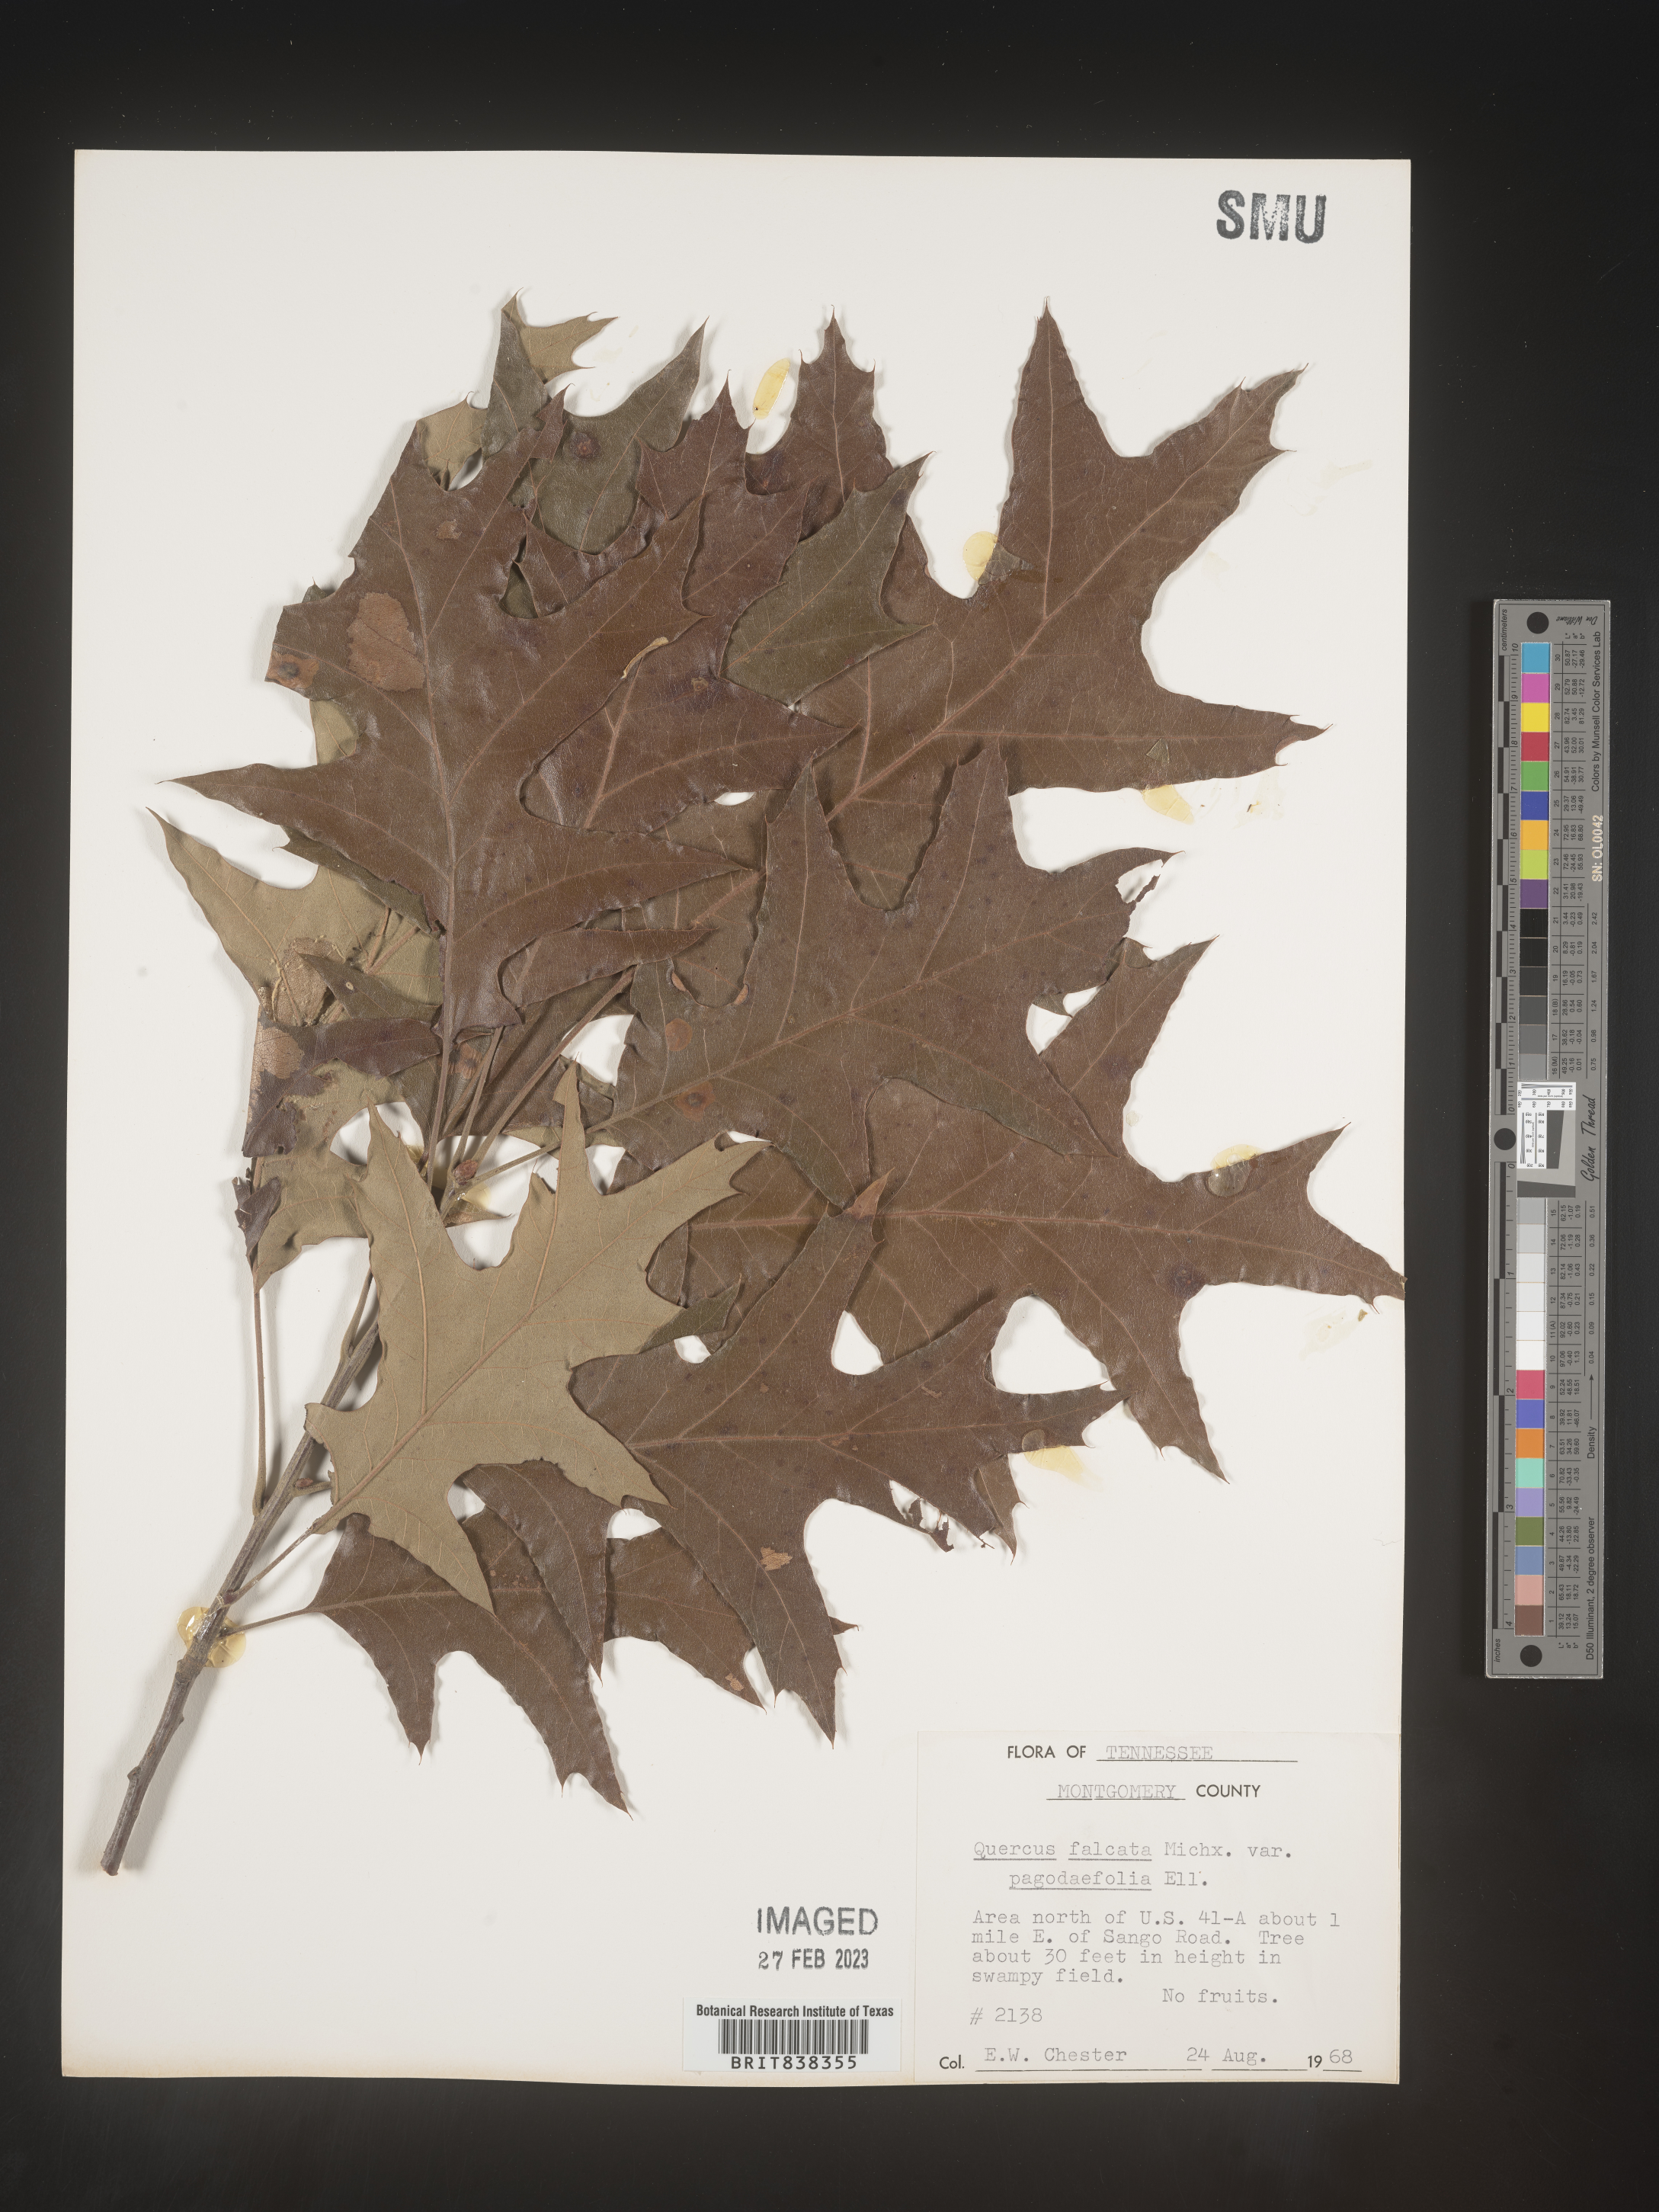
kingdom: Plantae
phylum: Tracheophyta
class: Magnoliopsida
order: Fagales
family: Fagaceae
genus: Quercus
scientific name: Quercus falcata
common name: Southern red oak
